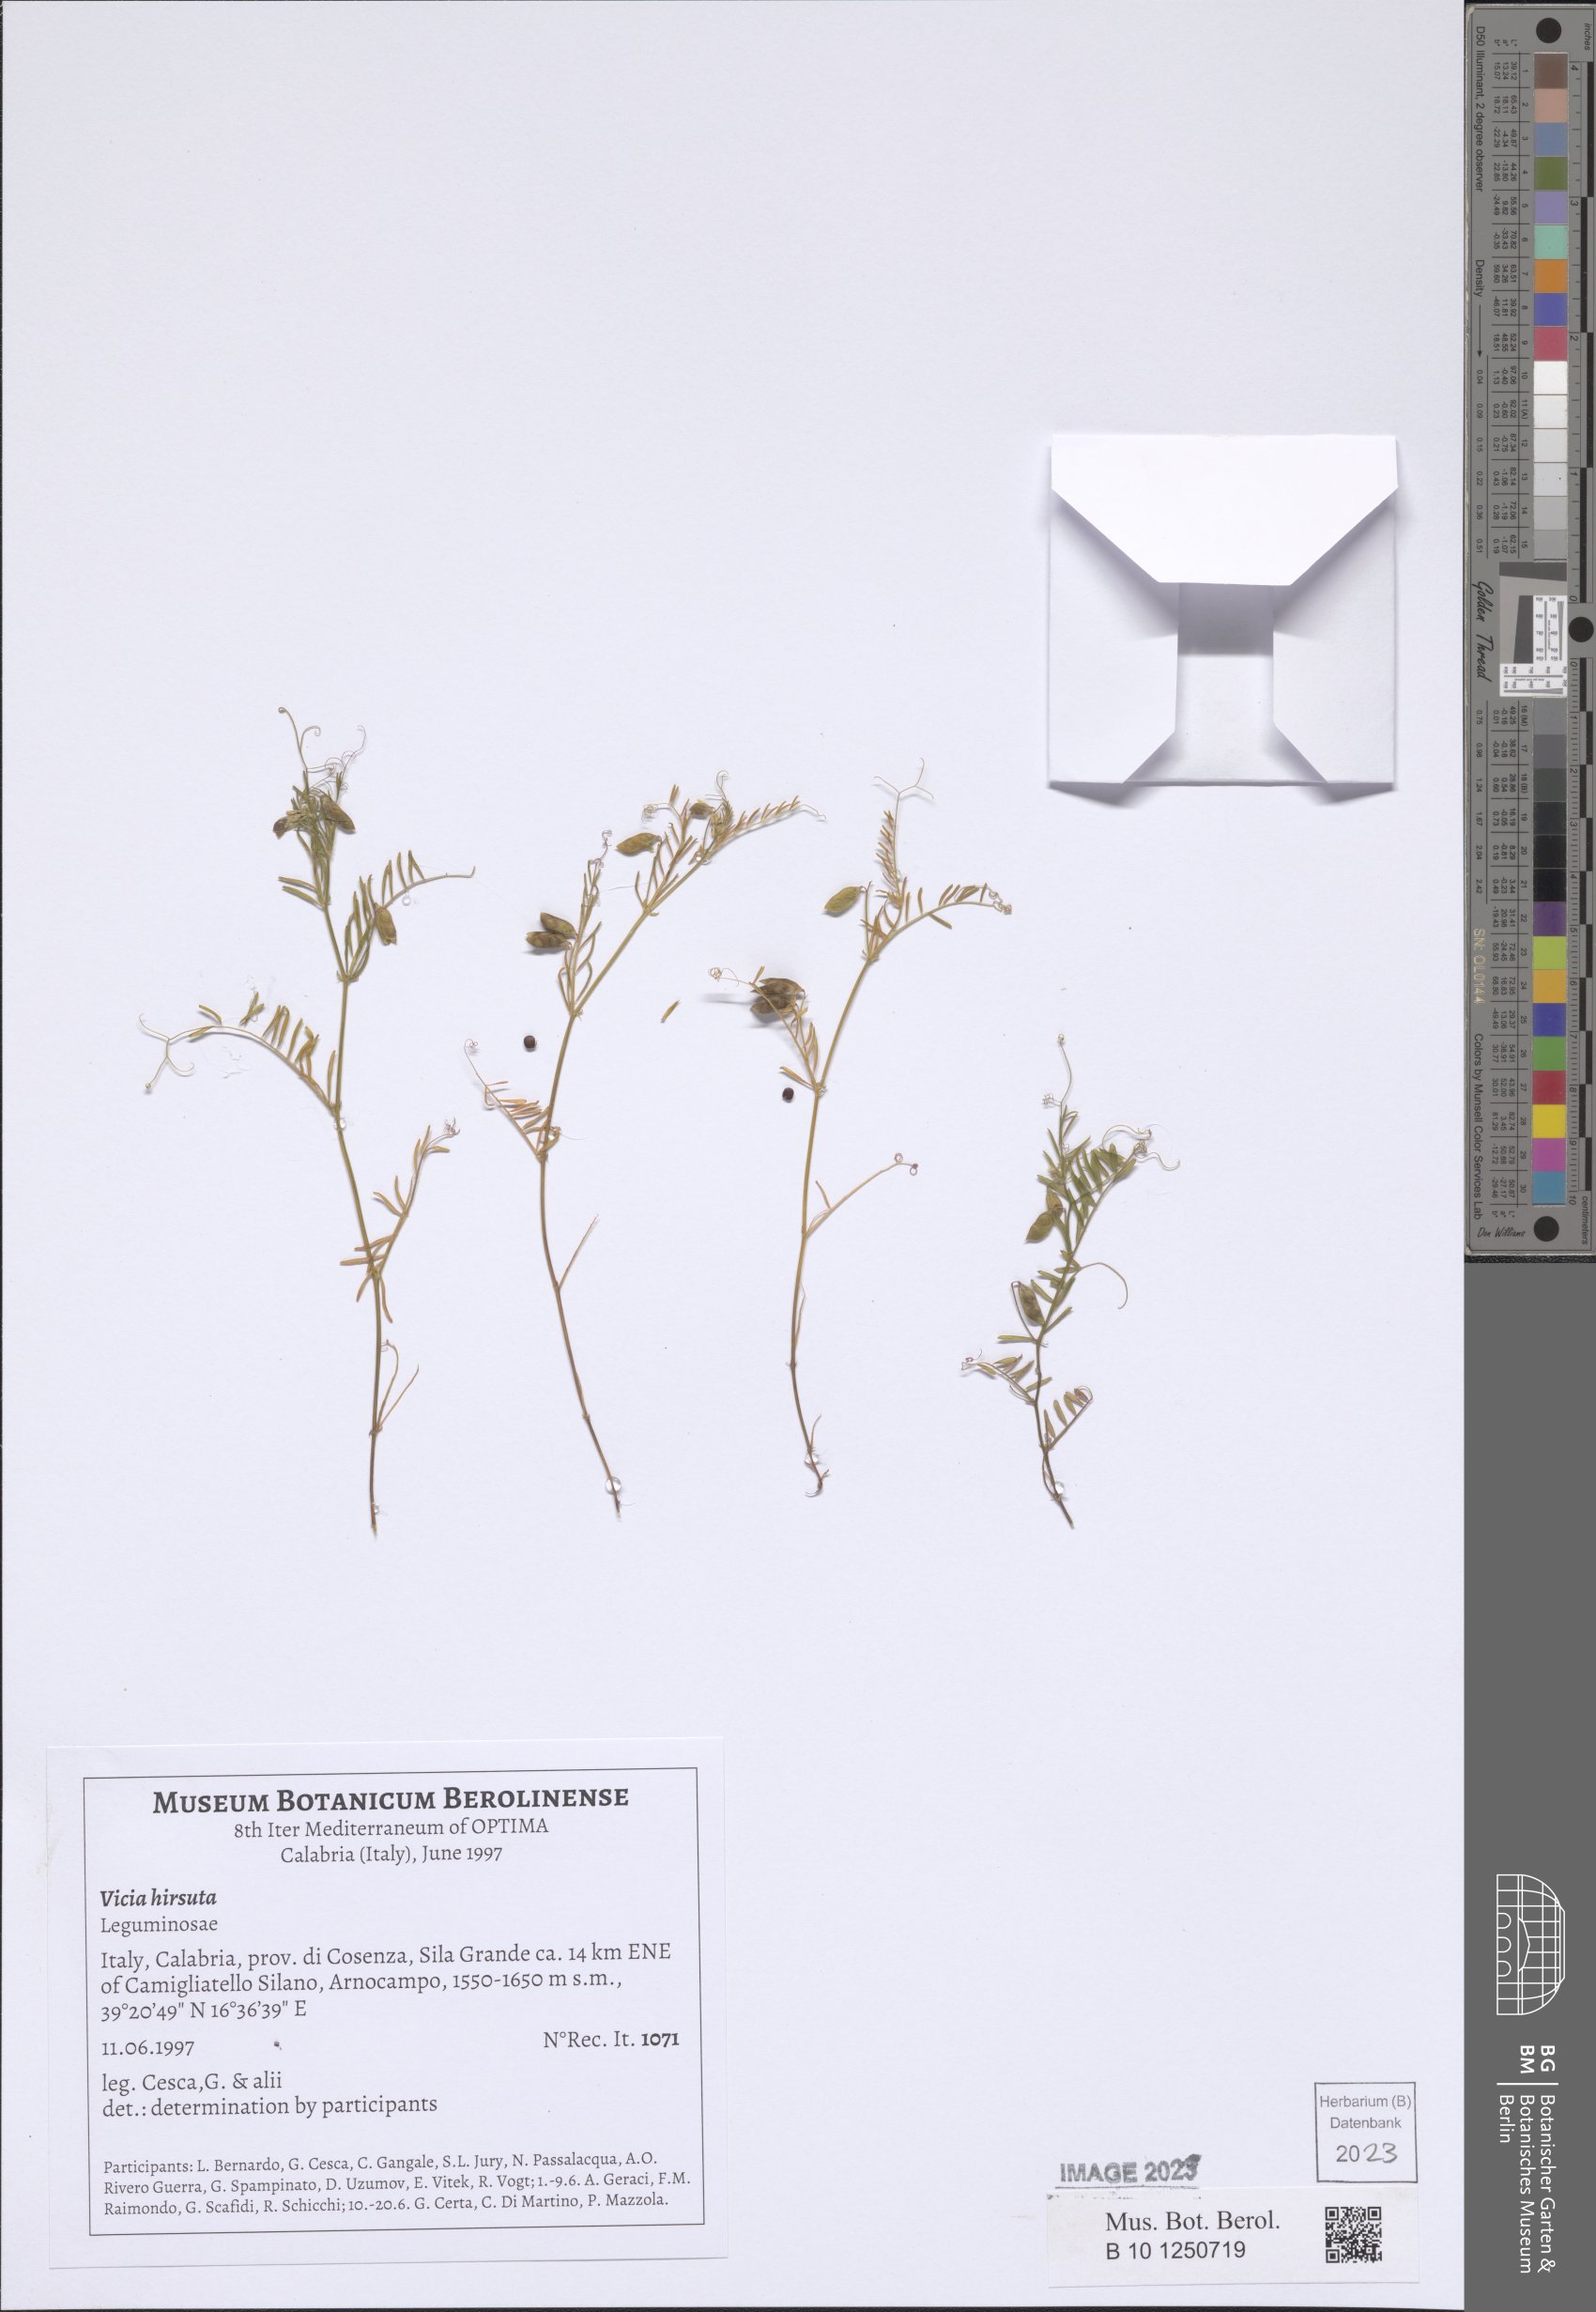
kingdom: Plantae
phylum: Tracheophyta
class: Magnoliopsida
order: Fabales
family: Fabaceae
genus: Vicia
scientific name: Vicia hirsuta
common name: Tiny vetch
